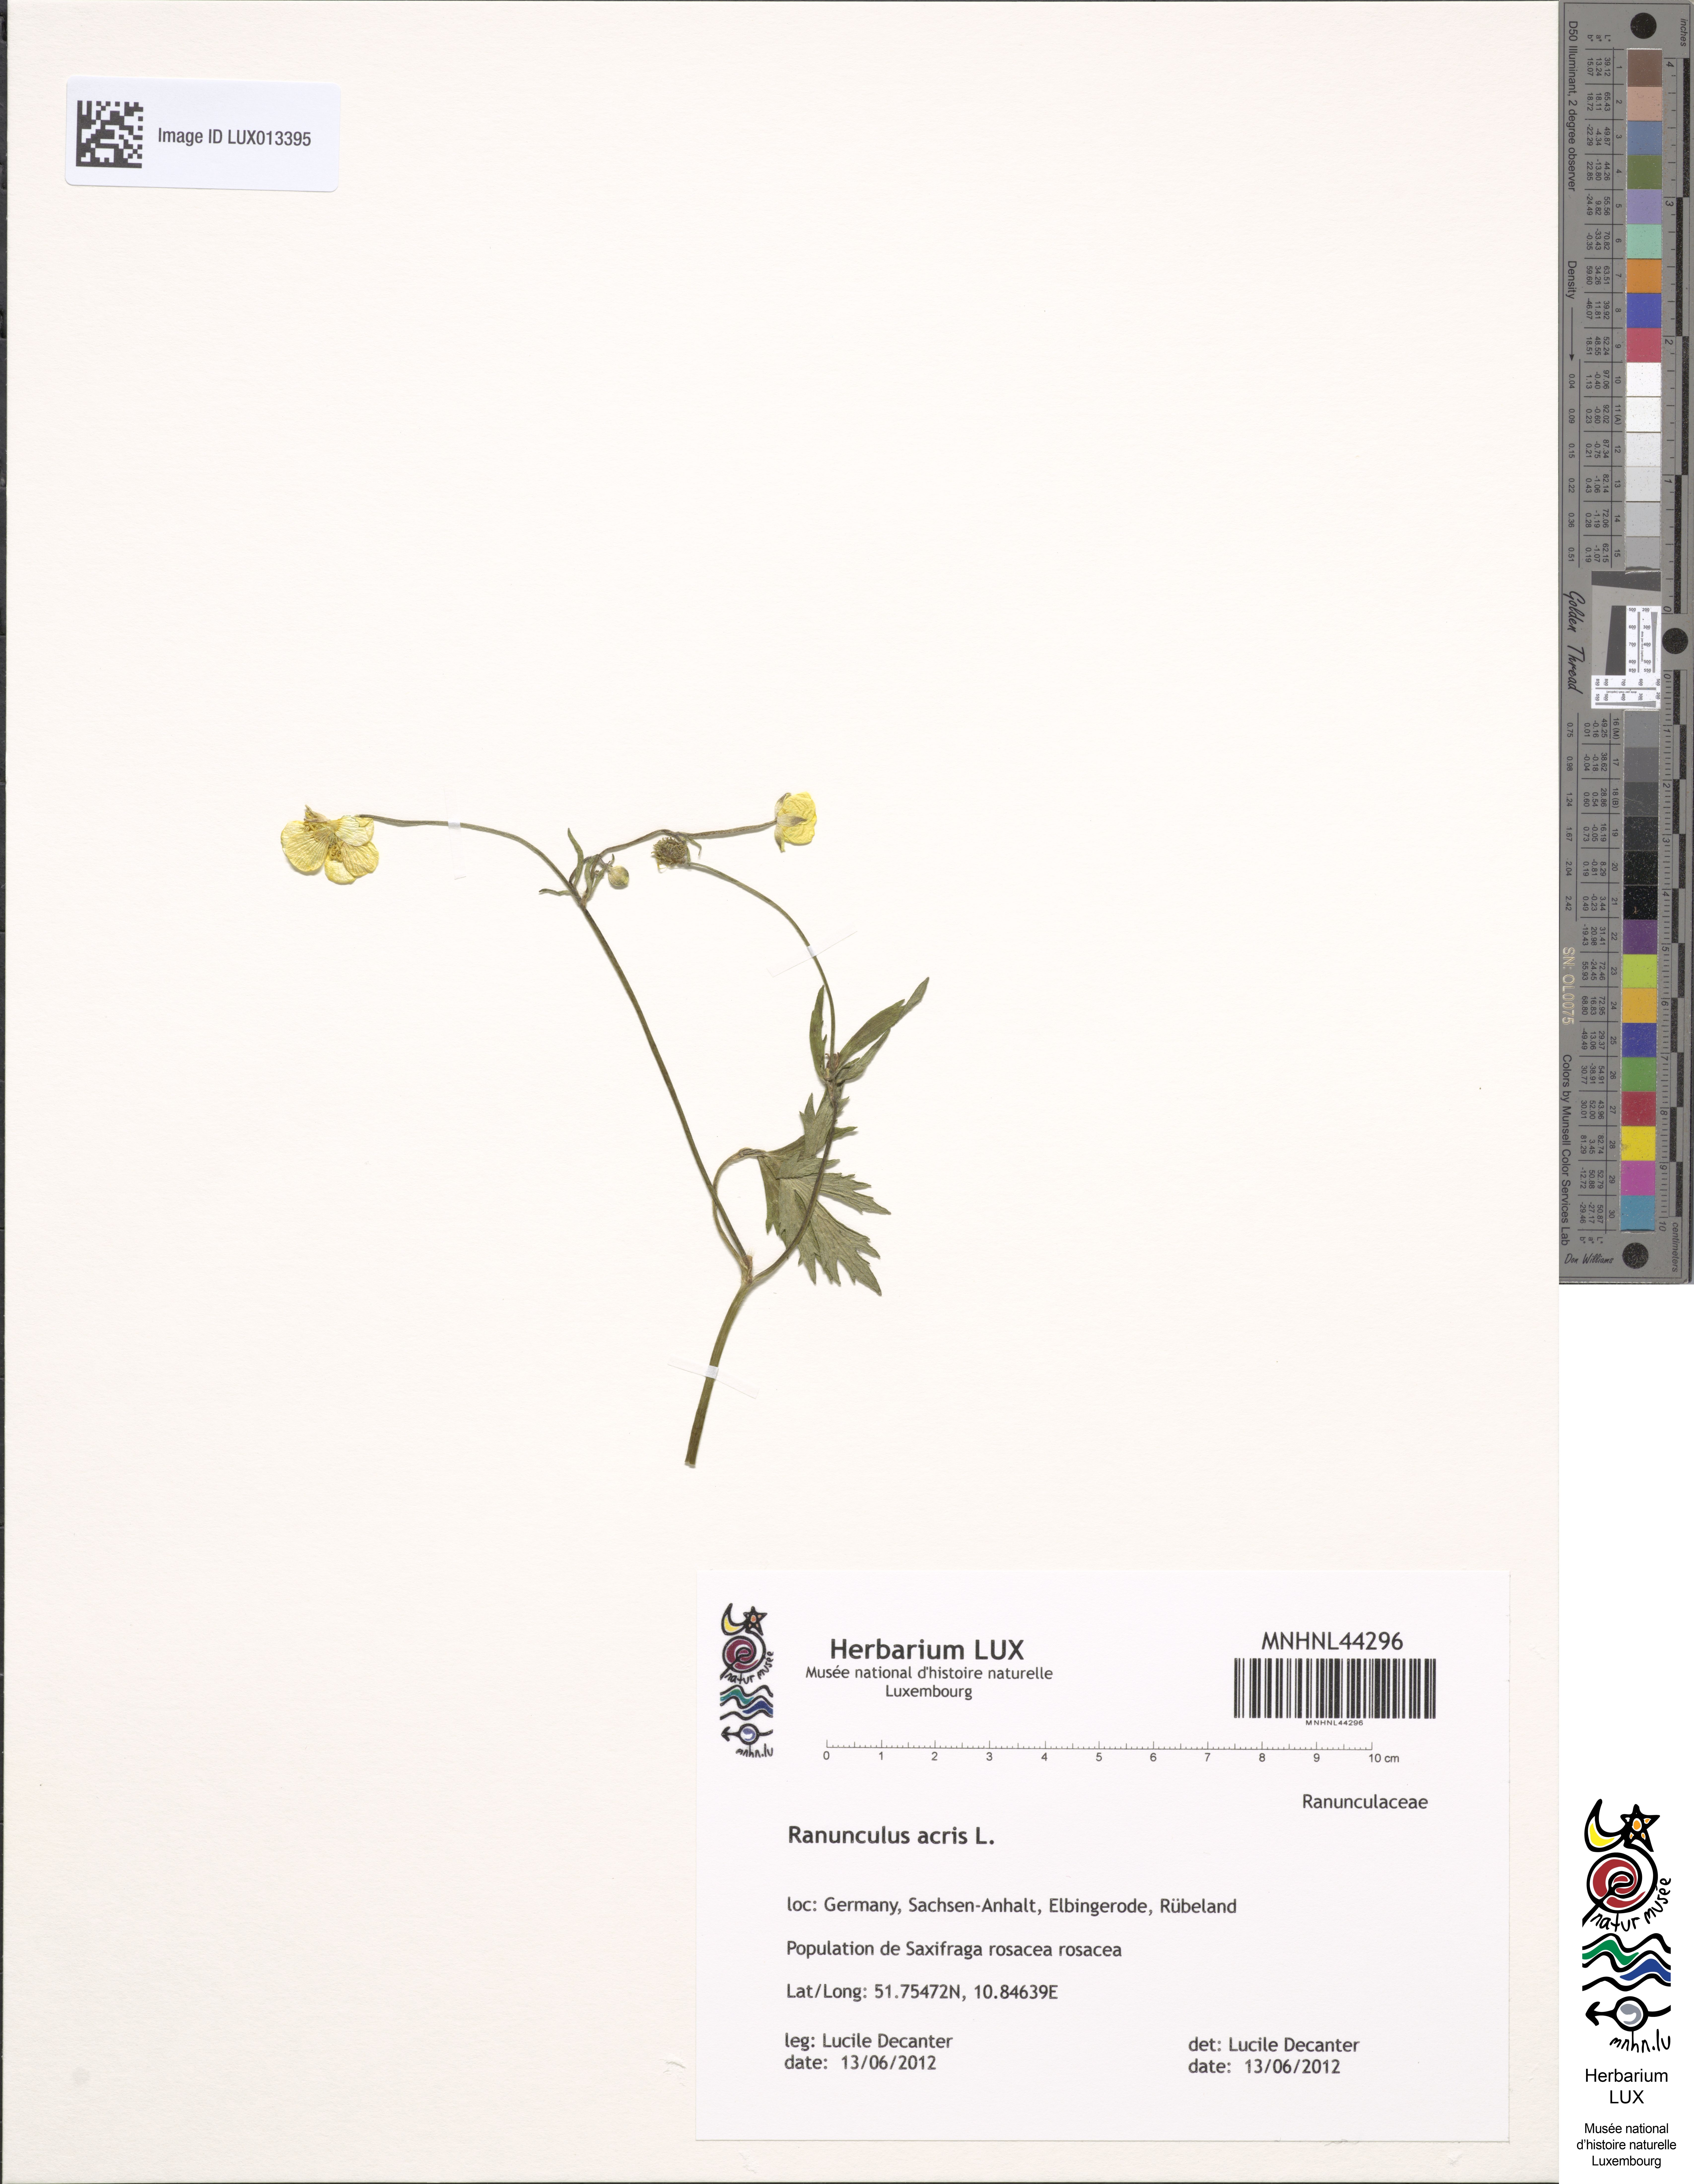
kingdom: Plantae
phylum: Tracheophyta
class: Magnoliopsida
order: Ranunculales
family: Ranunculaceae
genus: Ranunculus
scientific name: Ranunculus acris
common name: Meadow buttercup
